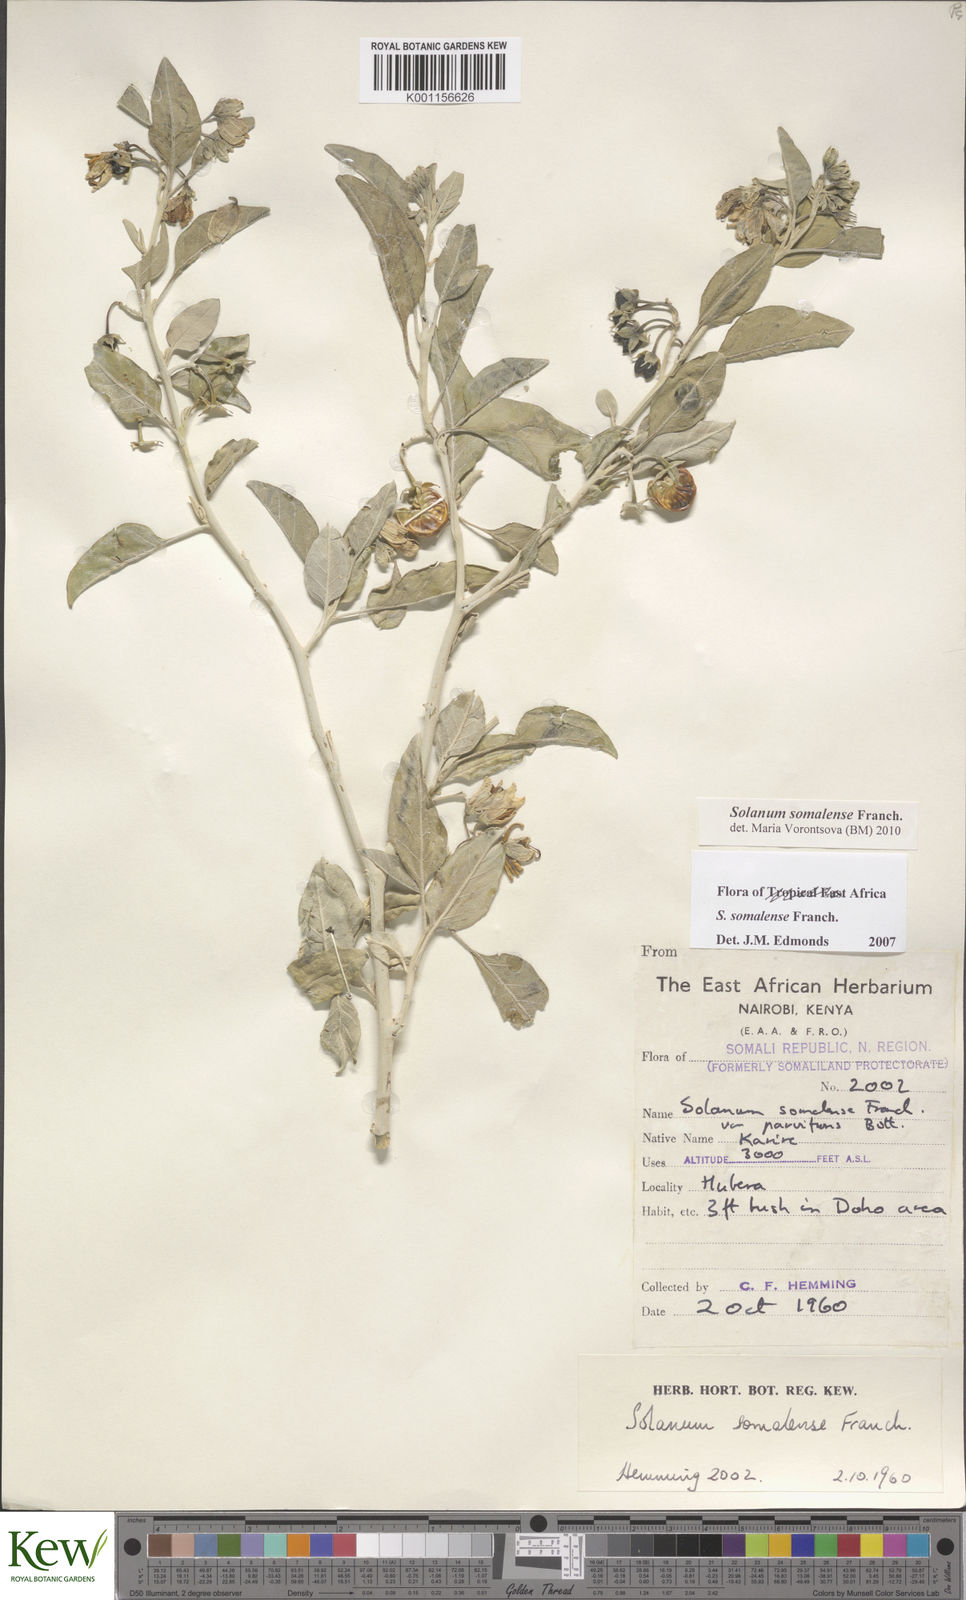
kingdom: Plantae
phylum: Tracheophyta
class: Magnoliopsida
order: Solanales
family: Solanaceae
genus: Solanum
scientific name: Solanum somalense
